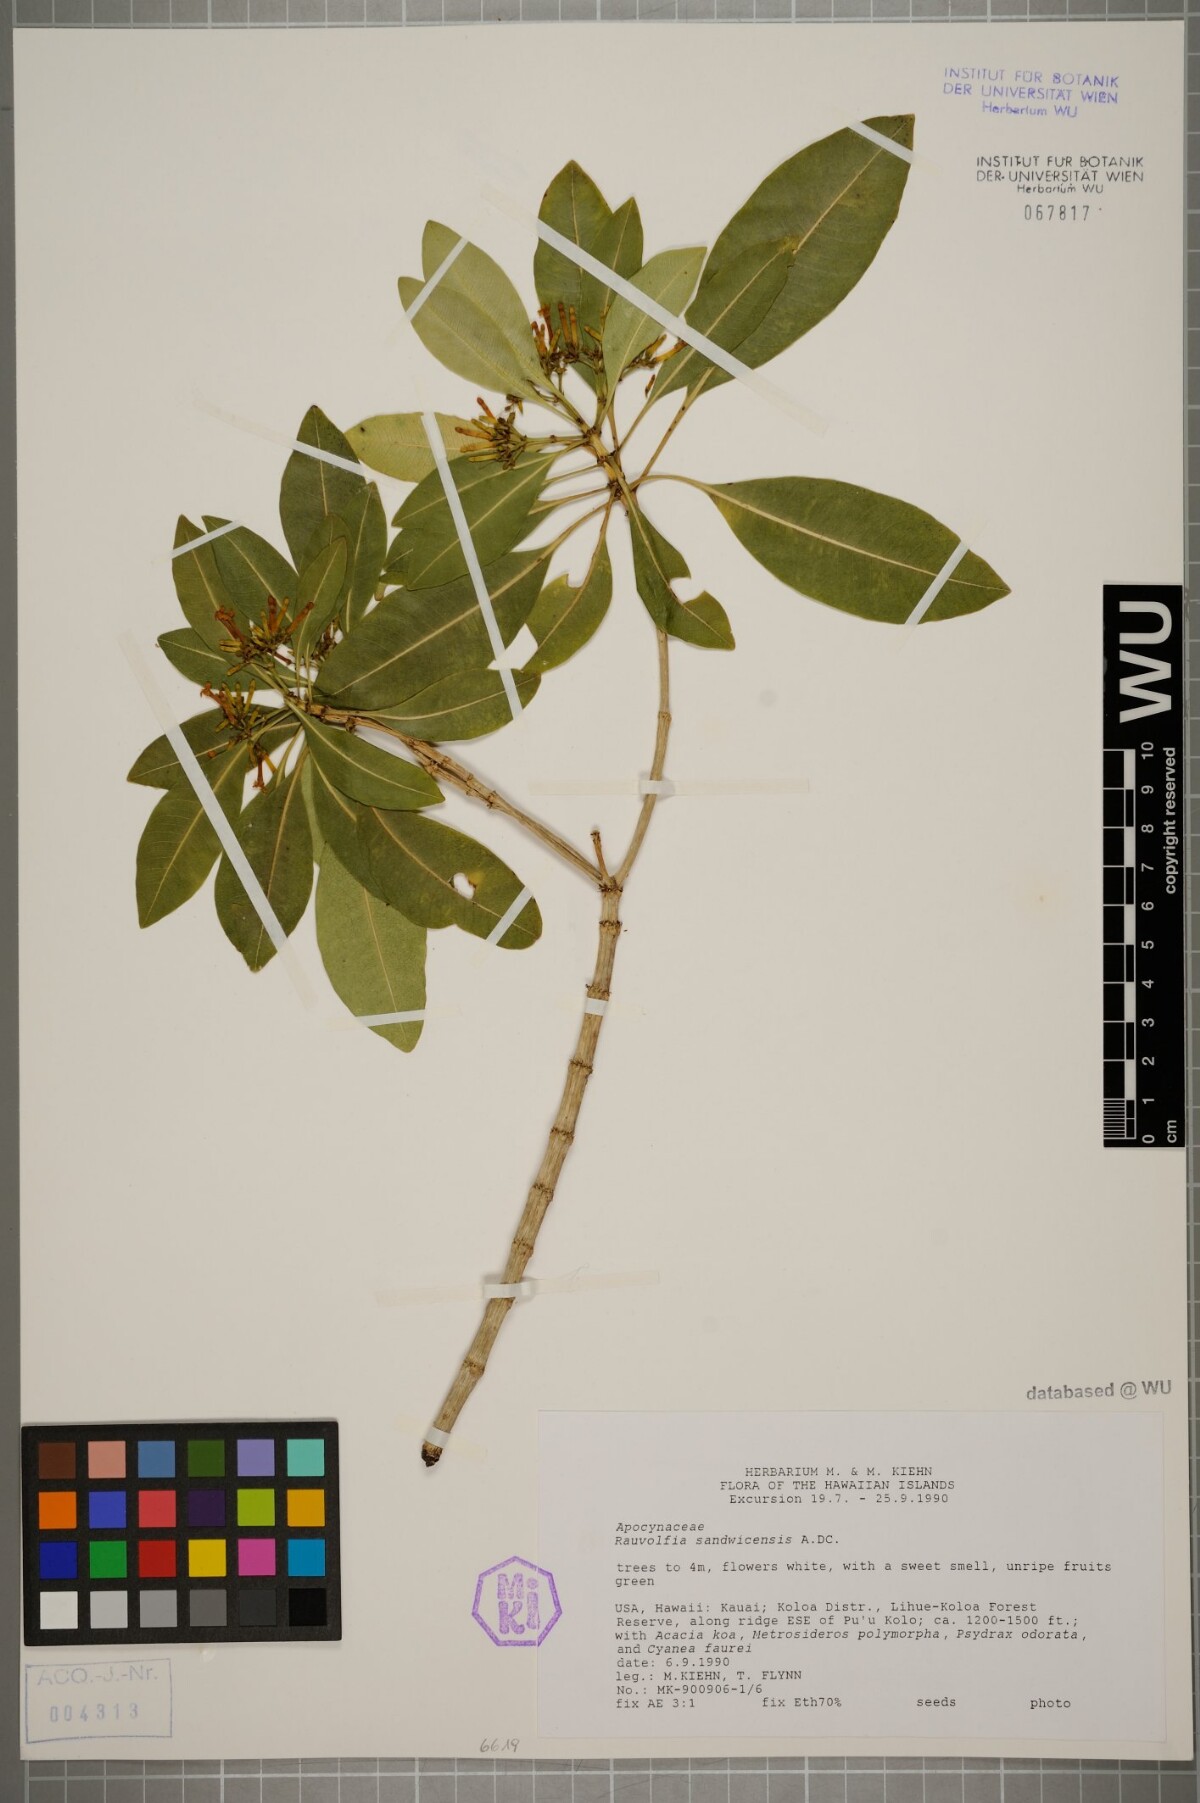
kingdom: Plantae
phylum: Tracheophyta
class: Magnoliopsida
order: Gentianales
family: Apocynaceae
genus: Rauvolfia
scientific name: Rauvolfia sandwicensis
